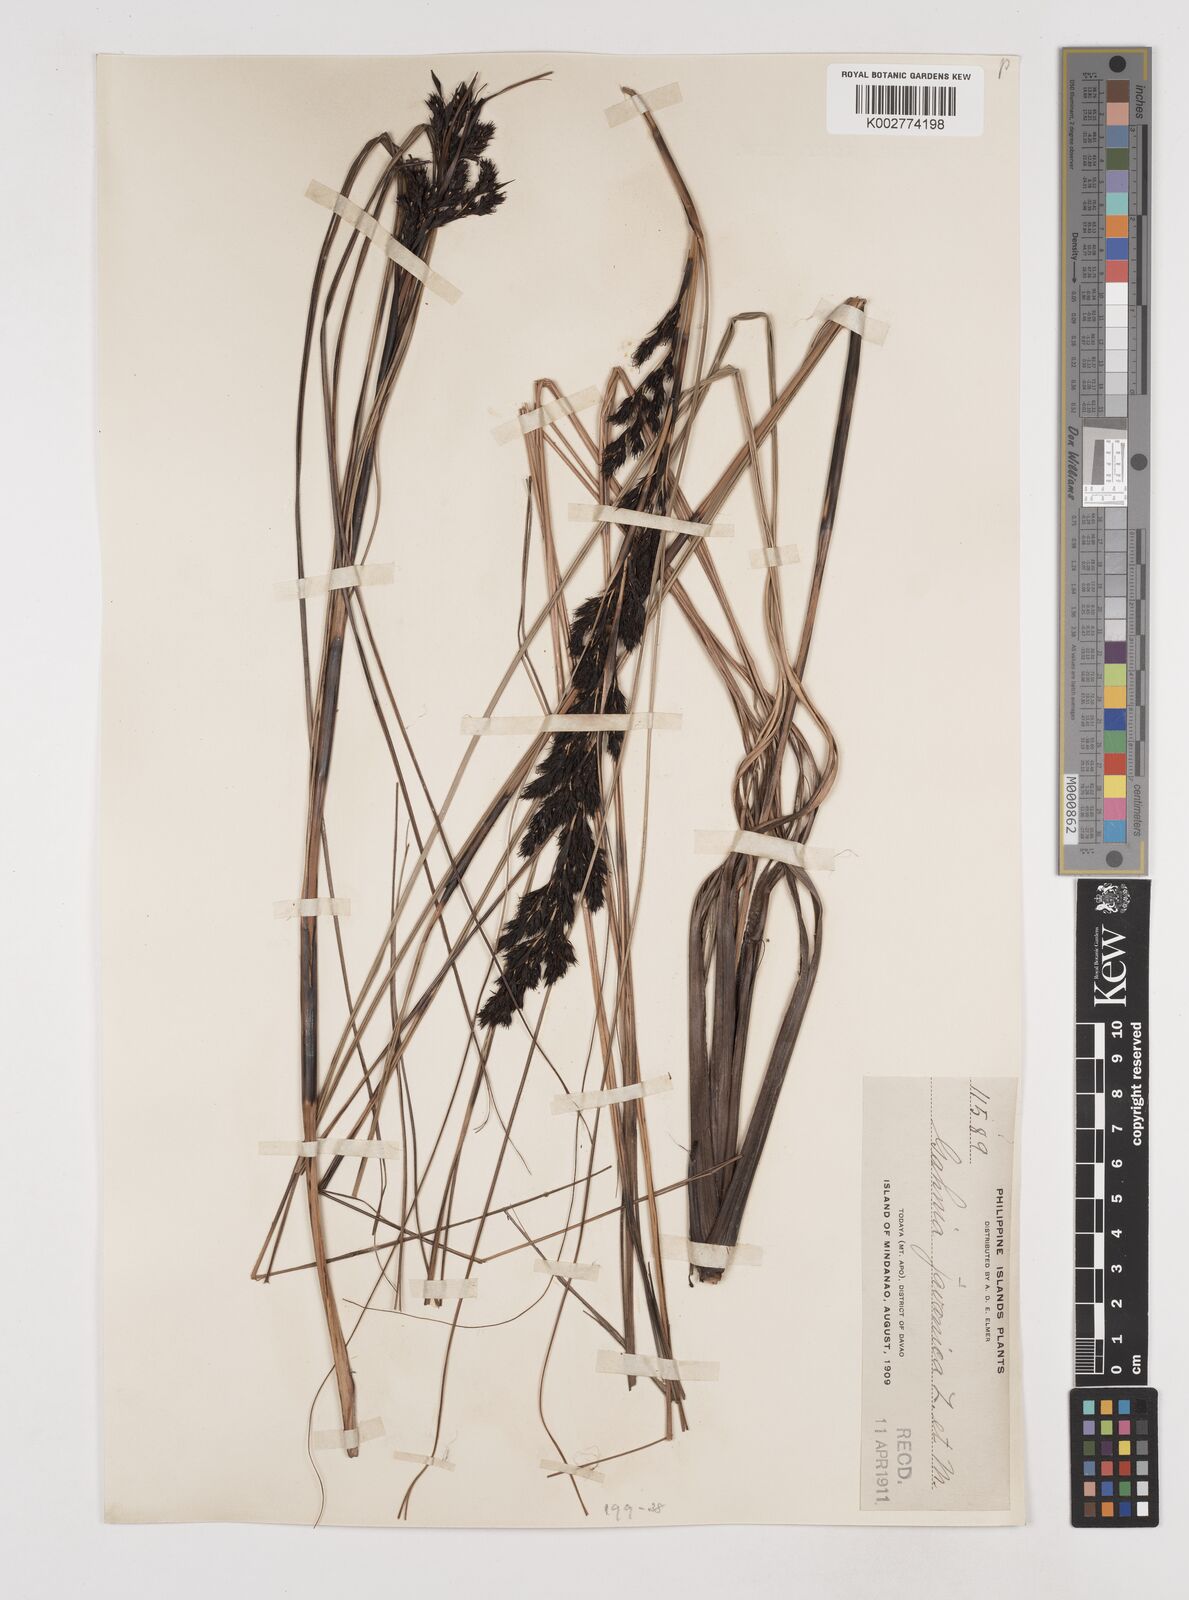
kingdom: Plantae
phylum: Tracheophyta
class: Liliopsida
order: Poales
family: Cyperaceae
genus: Gahnia
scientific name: Gahnia javanica
